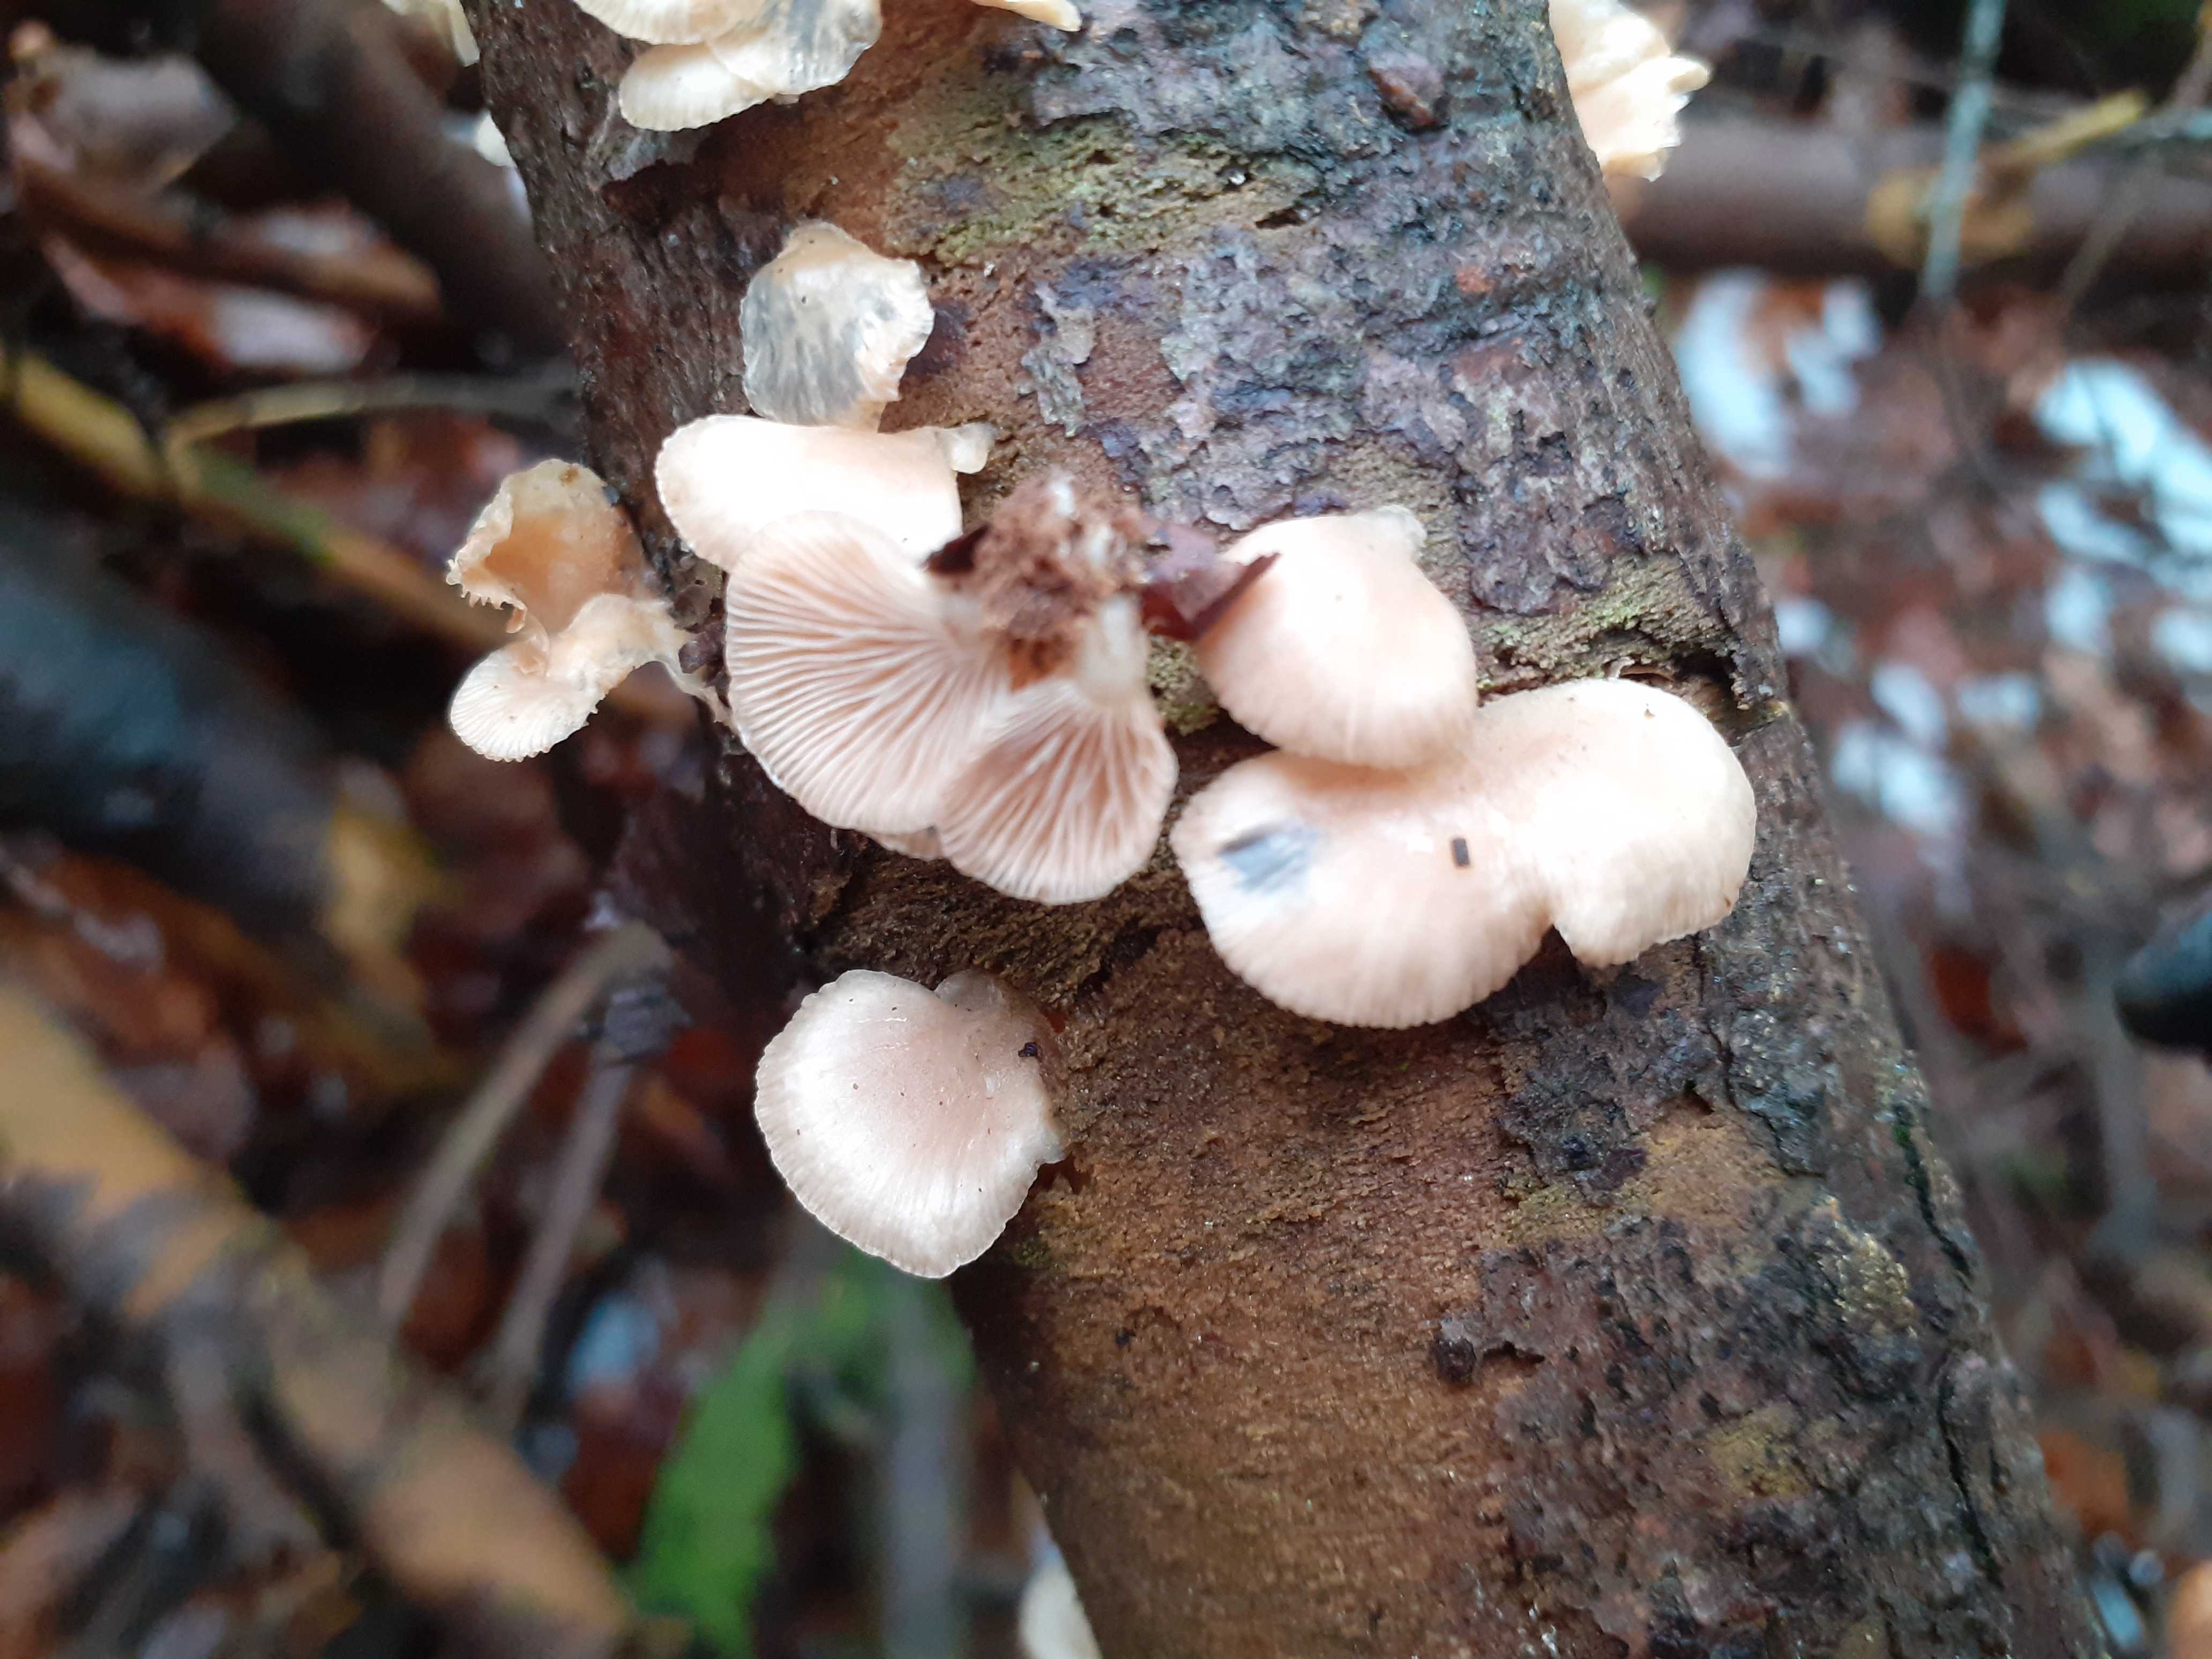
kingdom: Fungi
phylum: Basidiomycota
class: Agaricomycetes
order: Agaricales
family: Mycenaceae
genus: Panellus
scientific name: Panellus mitis
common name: mild epaulethat
